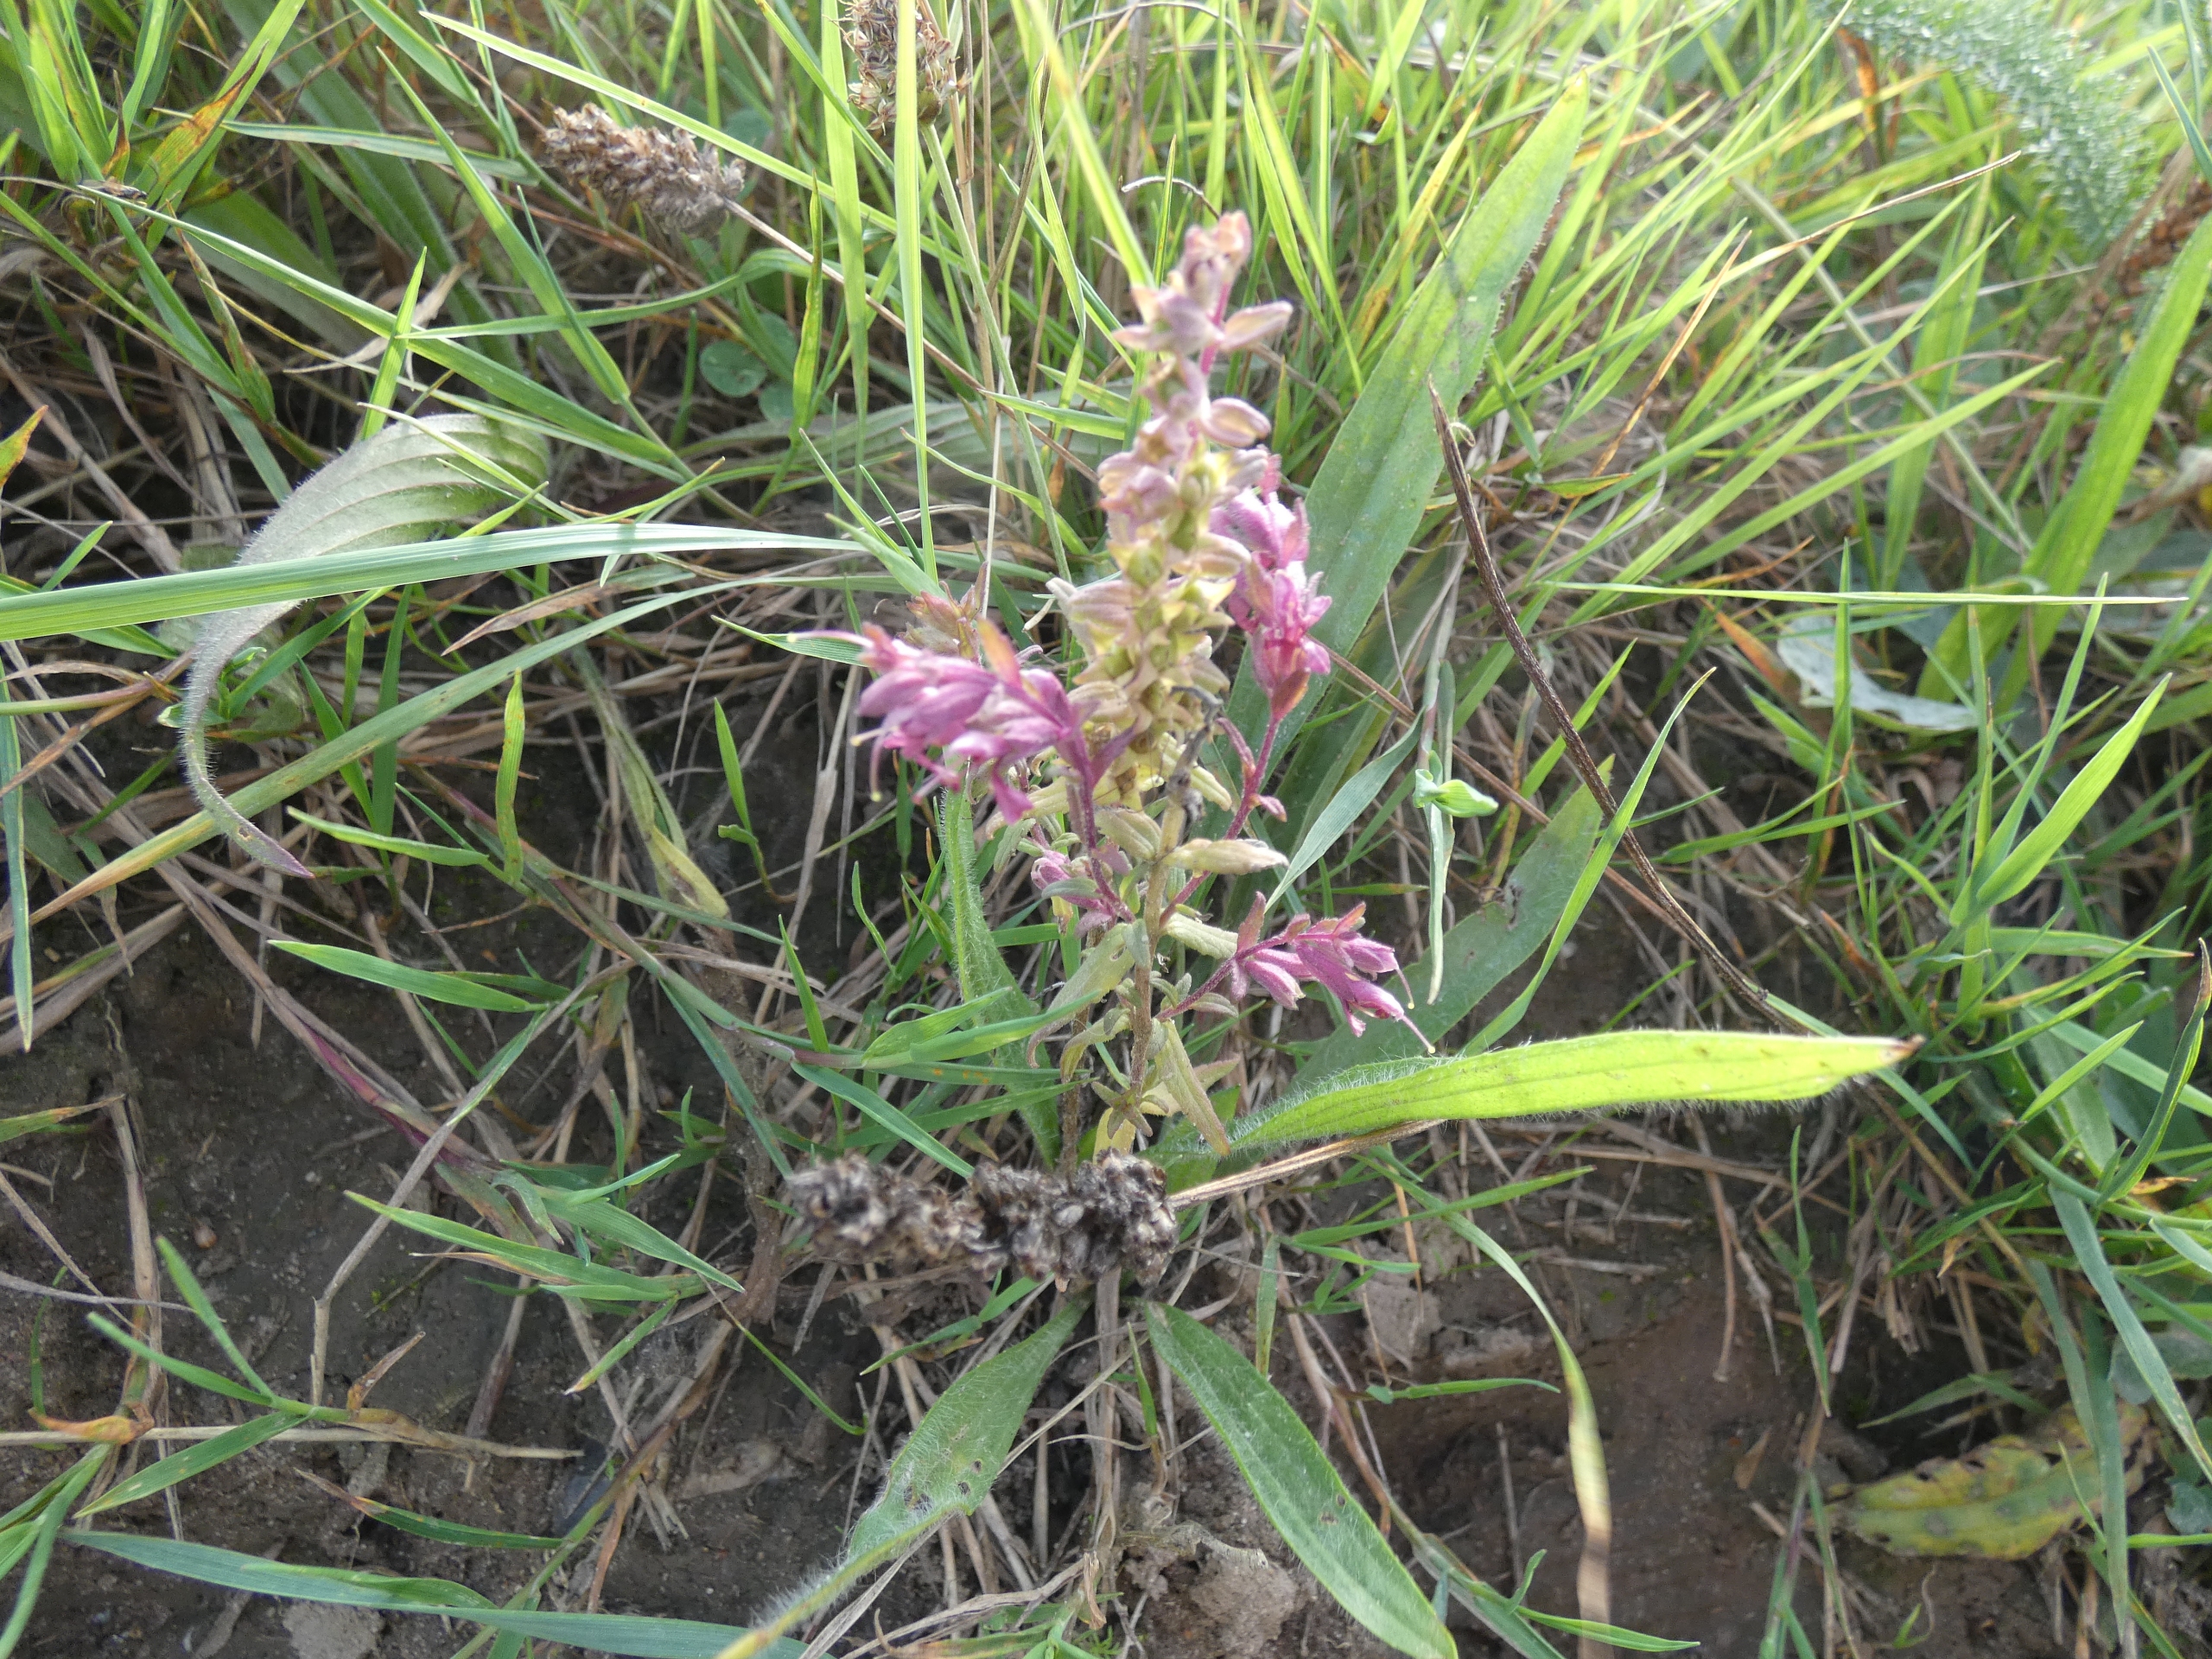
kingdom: Plantae
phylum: Tracheophyta
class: Magnoliopsida
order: Lamiales
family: Orobanchaceae
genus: Odontites
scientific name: Odontites vulgaris
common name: Høst-rødtop
